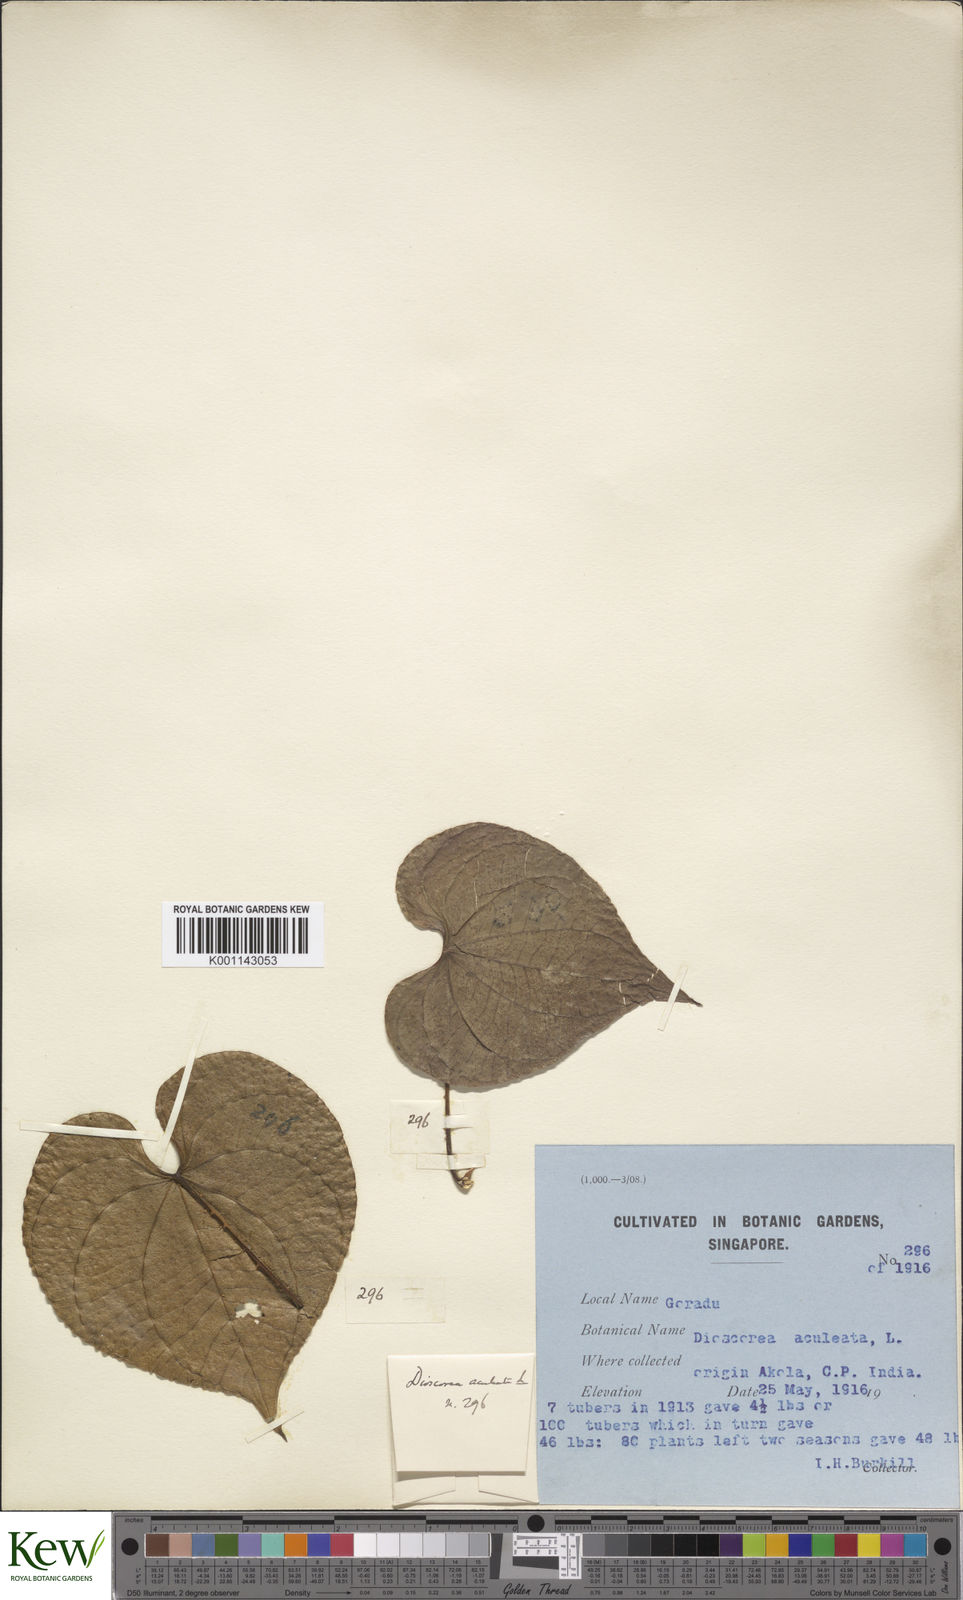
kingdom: Plantae
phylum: Tracheophyta
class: Liliopsida
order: Dioscoreales
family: Dioscoreaceae
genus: Dioscorea
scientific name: Dioscorea esculenta
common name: Chinese yam
